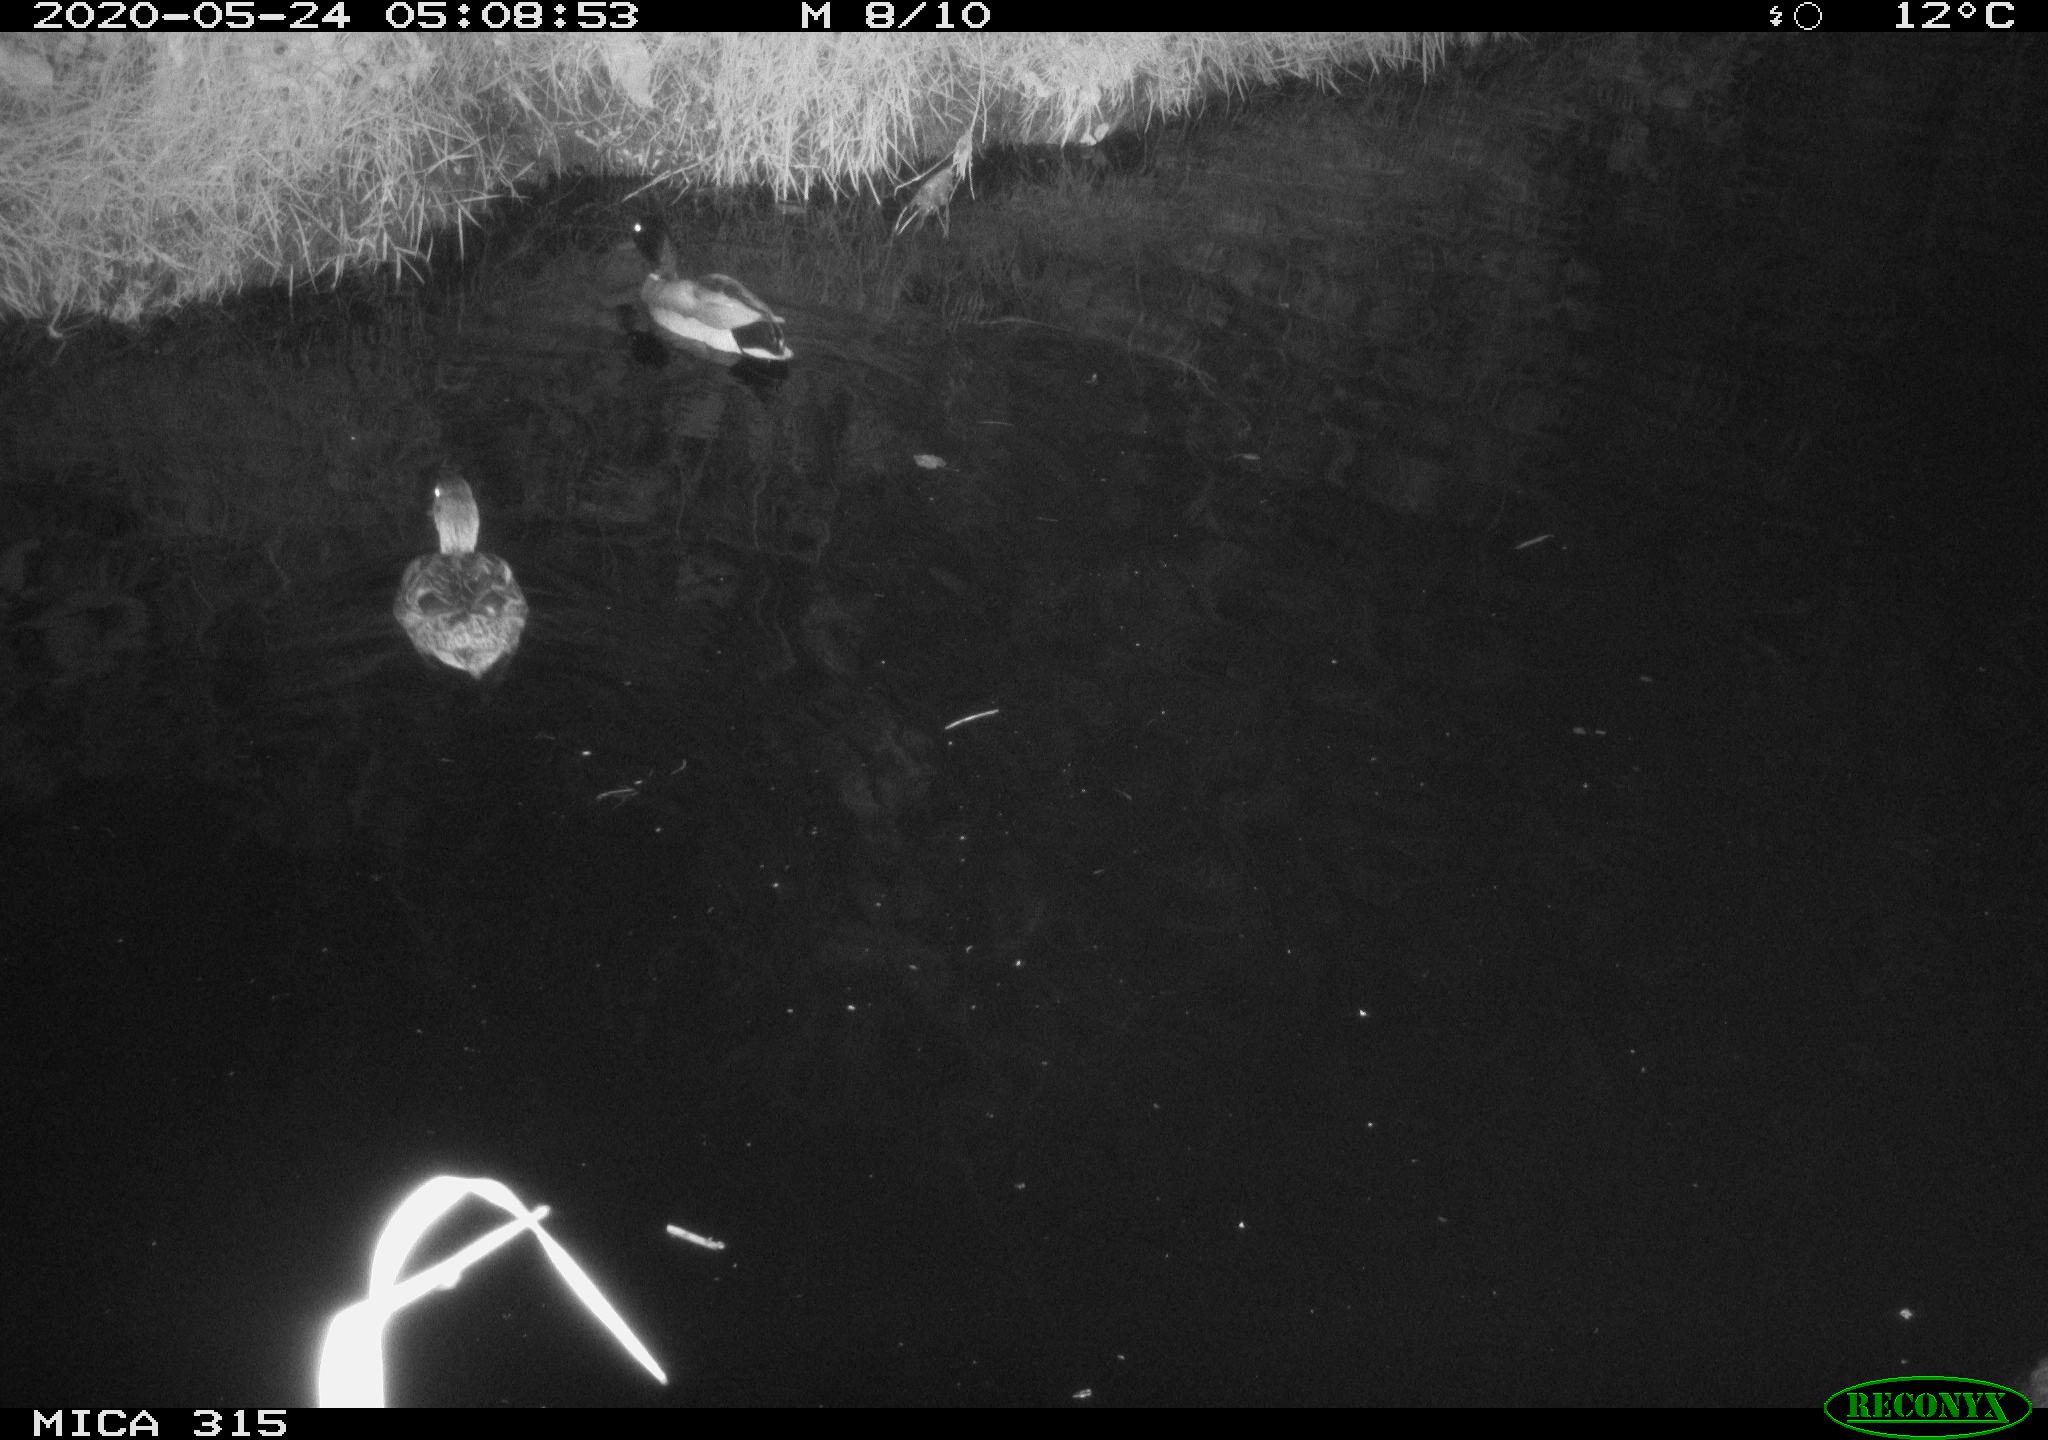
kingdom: Animalia
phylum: Chordata
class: Aves
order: Anseriformes
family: Anatidae
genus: Anas
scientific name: Anas platyrhynchos
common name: Mallard
